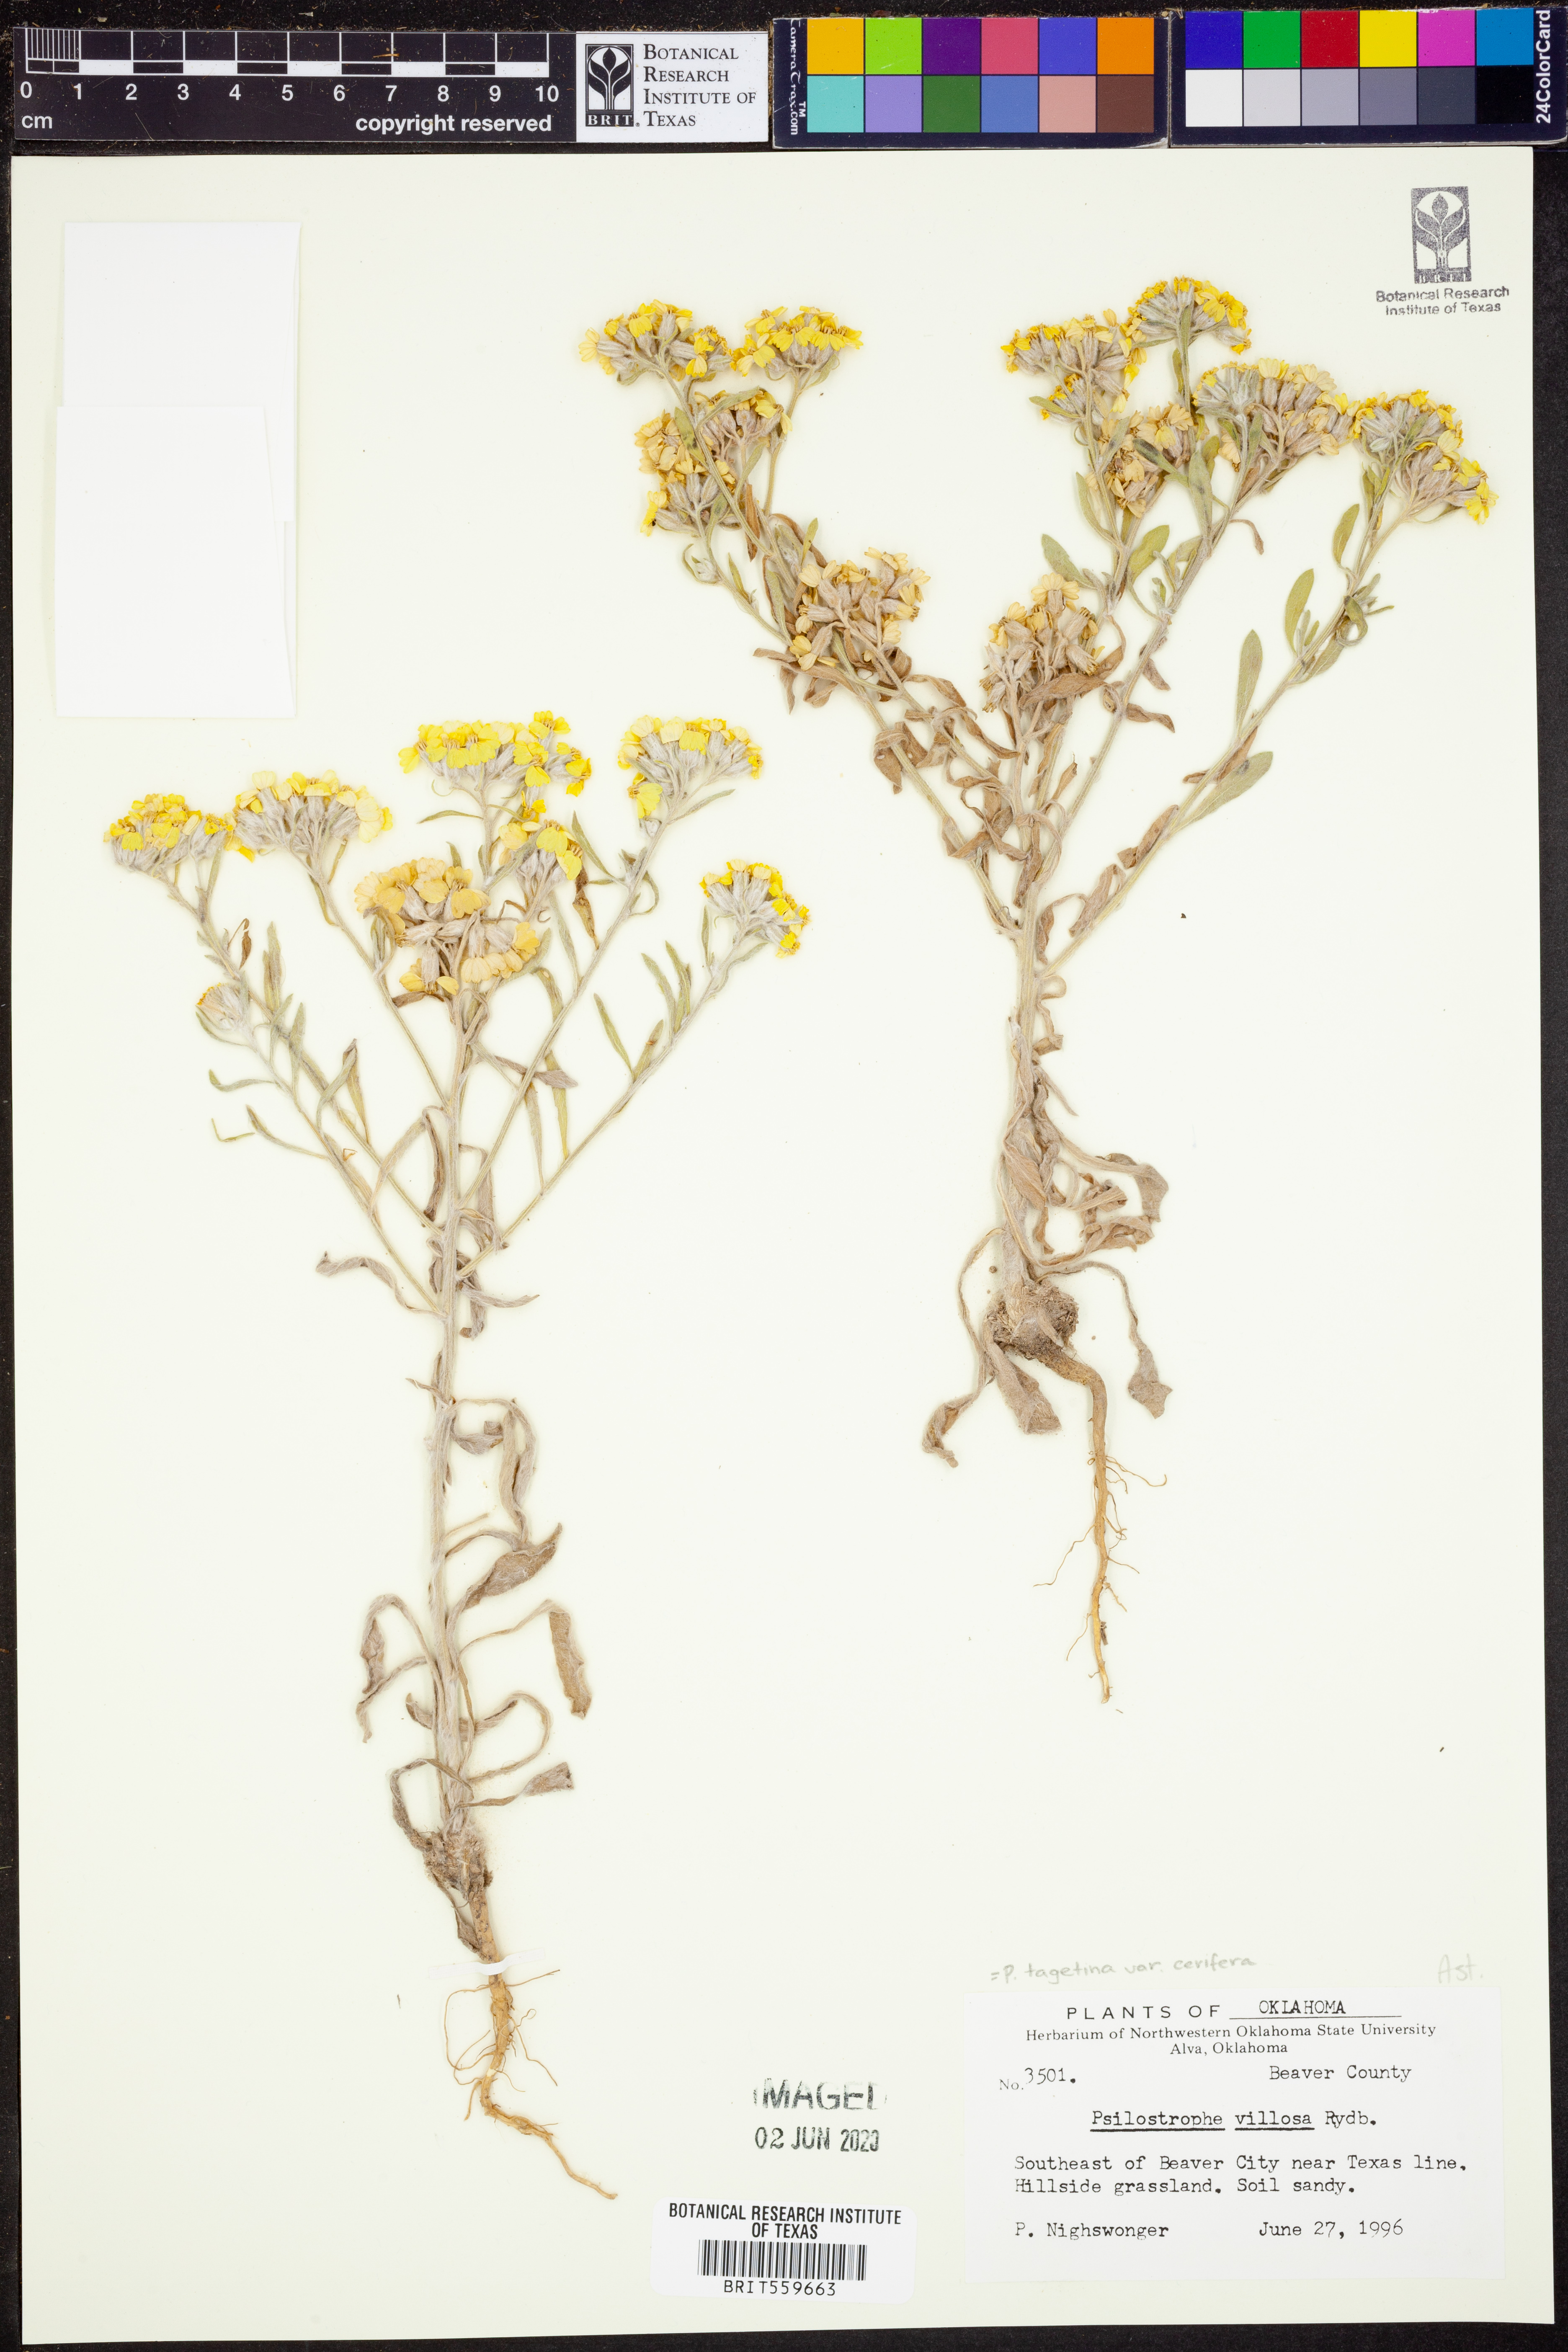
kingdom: Plantae
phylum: Tracheophyta
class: Magnoliopsida
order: Asterales
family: Asteraceae
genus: Psilostrophe
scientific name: Psilostrophe villosa
